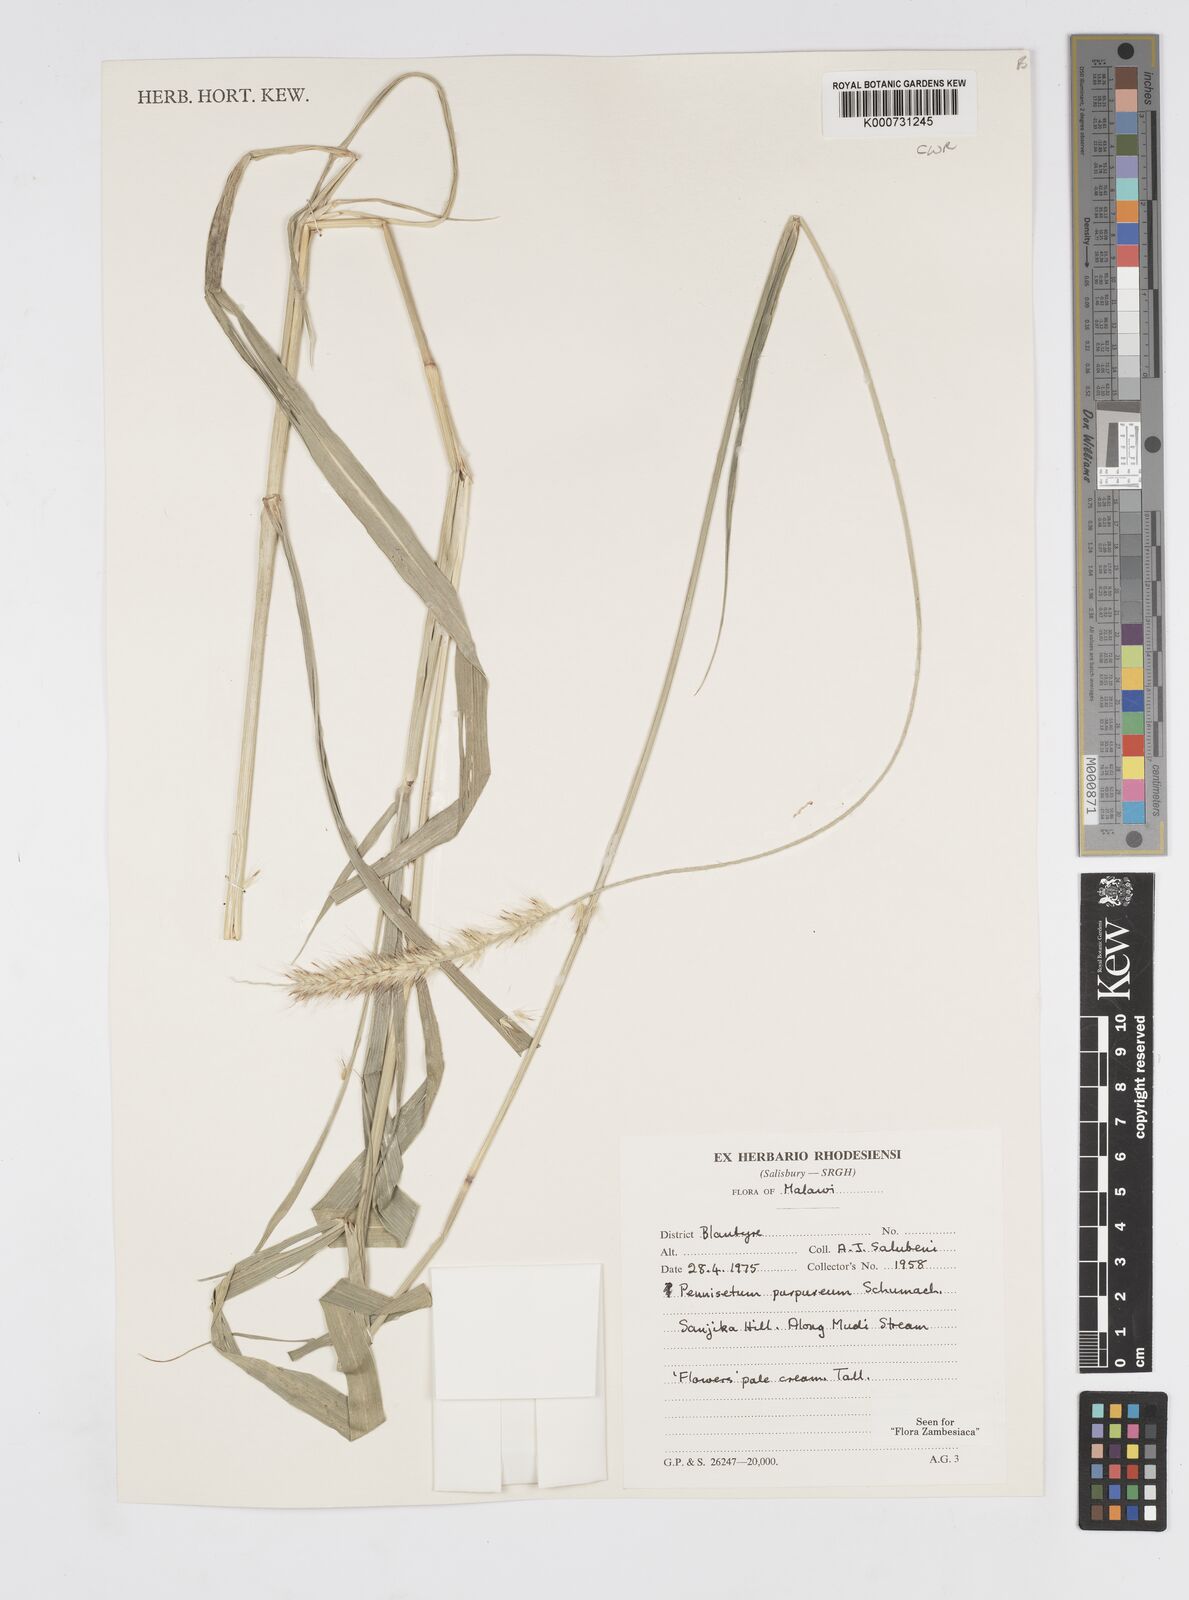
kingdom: Plantae
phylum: Tracheophyta
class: Liliopsida
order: Poales
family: Poaceae
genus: Cenchrus
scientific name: Cenchrus purpureus
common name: Elephant grass
